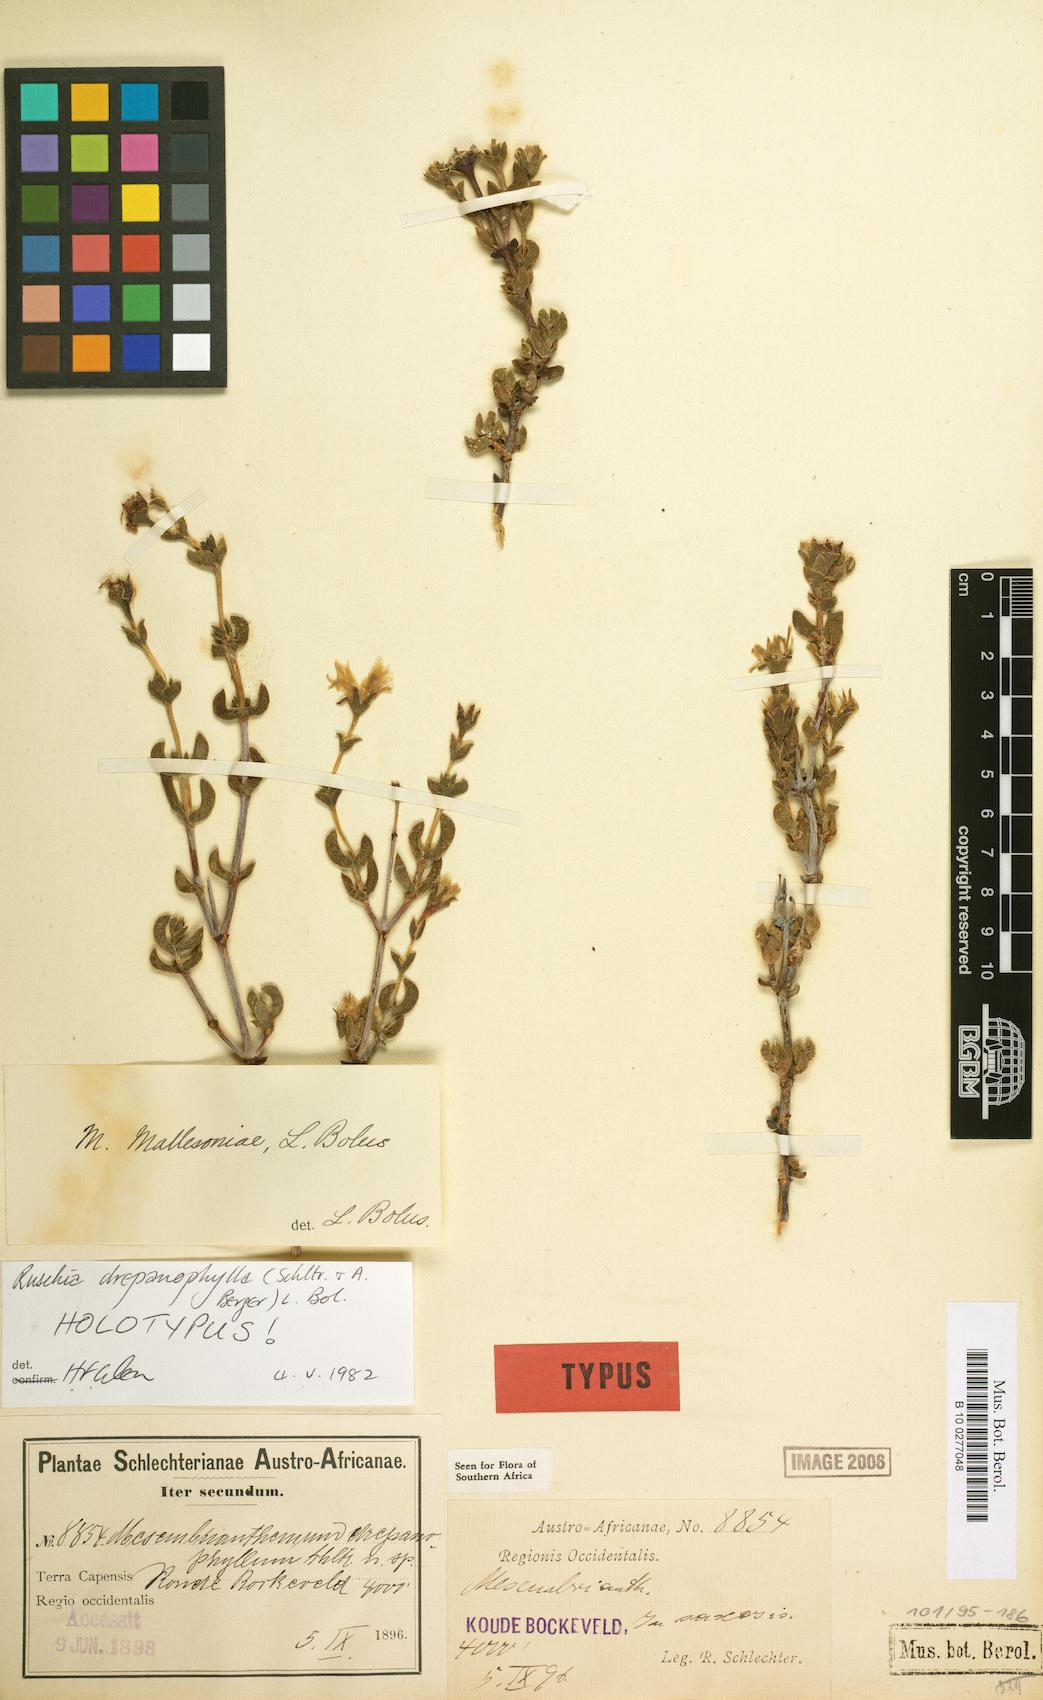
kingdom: Plantae
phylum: Tracheophyta
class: Magnoliopsida
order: Caryophyllales
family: Aizoaceae
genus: Esterhuysenia
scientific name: Esterhuysenia drepanophylla
